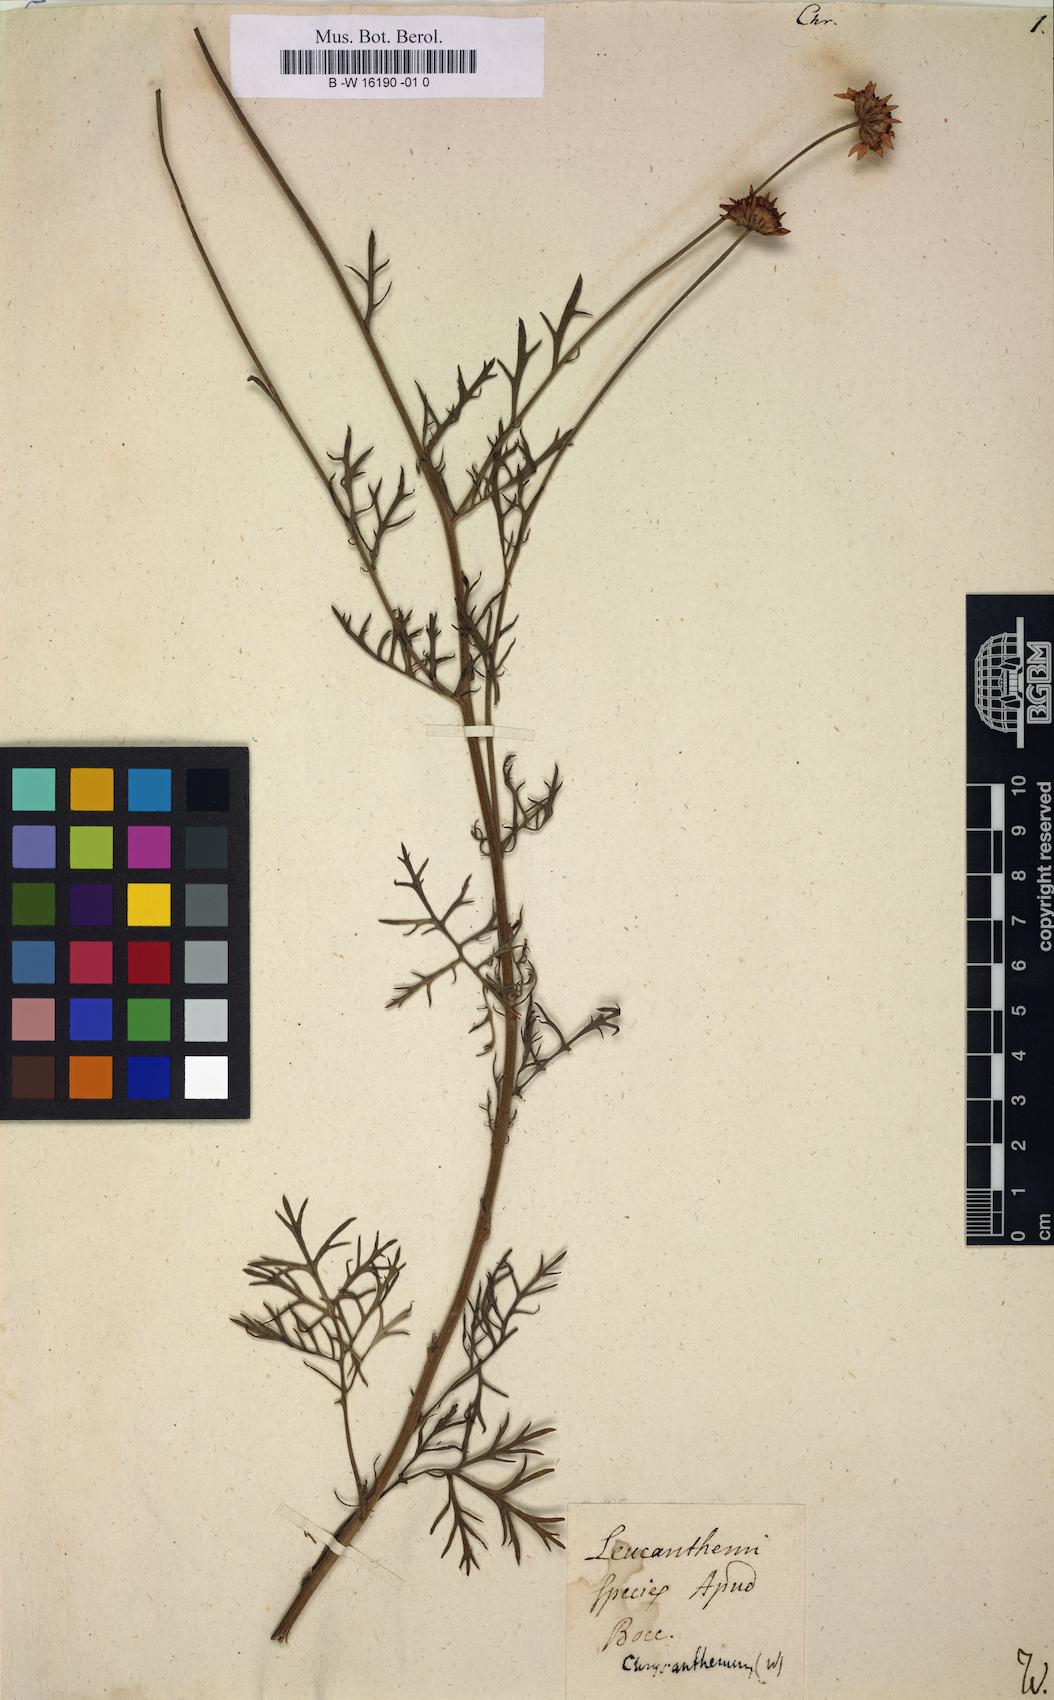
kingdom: Plantae
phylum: Tracheophyta
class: Magnoliopsida
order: Asterales
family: Asteraceae
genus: Chrysanthemum
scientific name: Chrysanthemum
